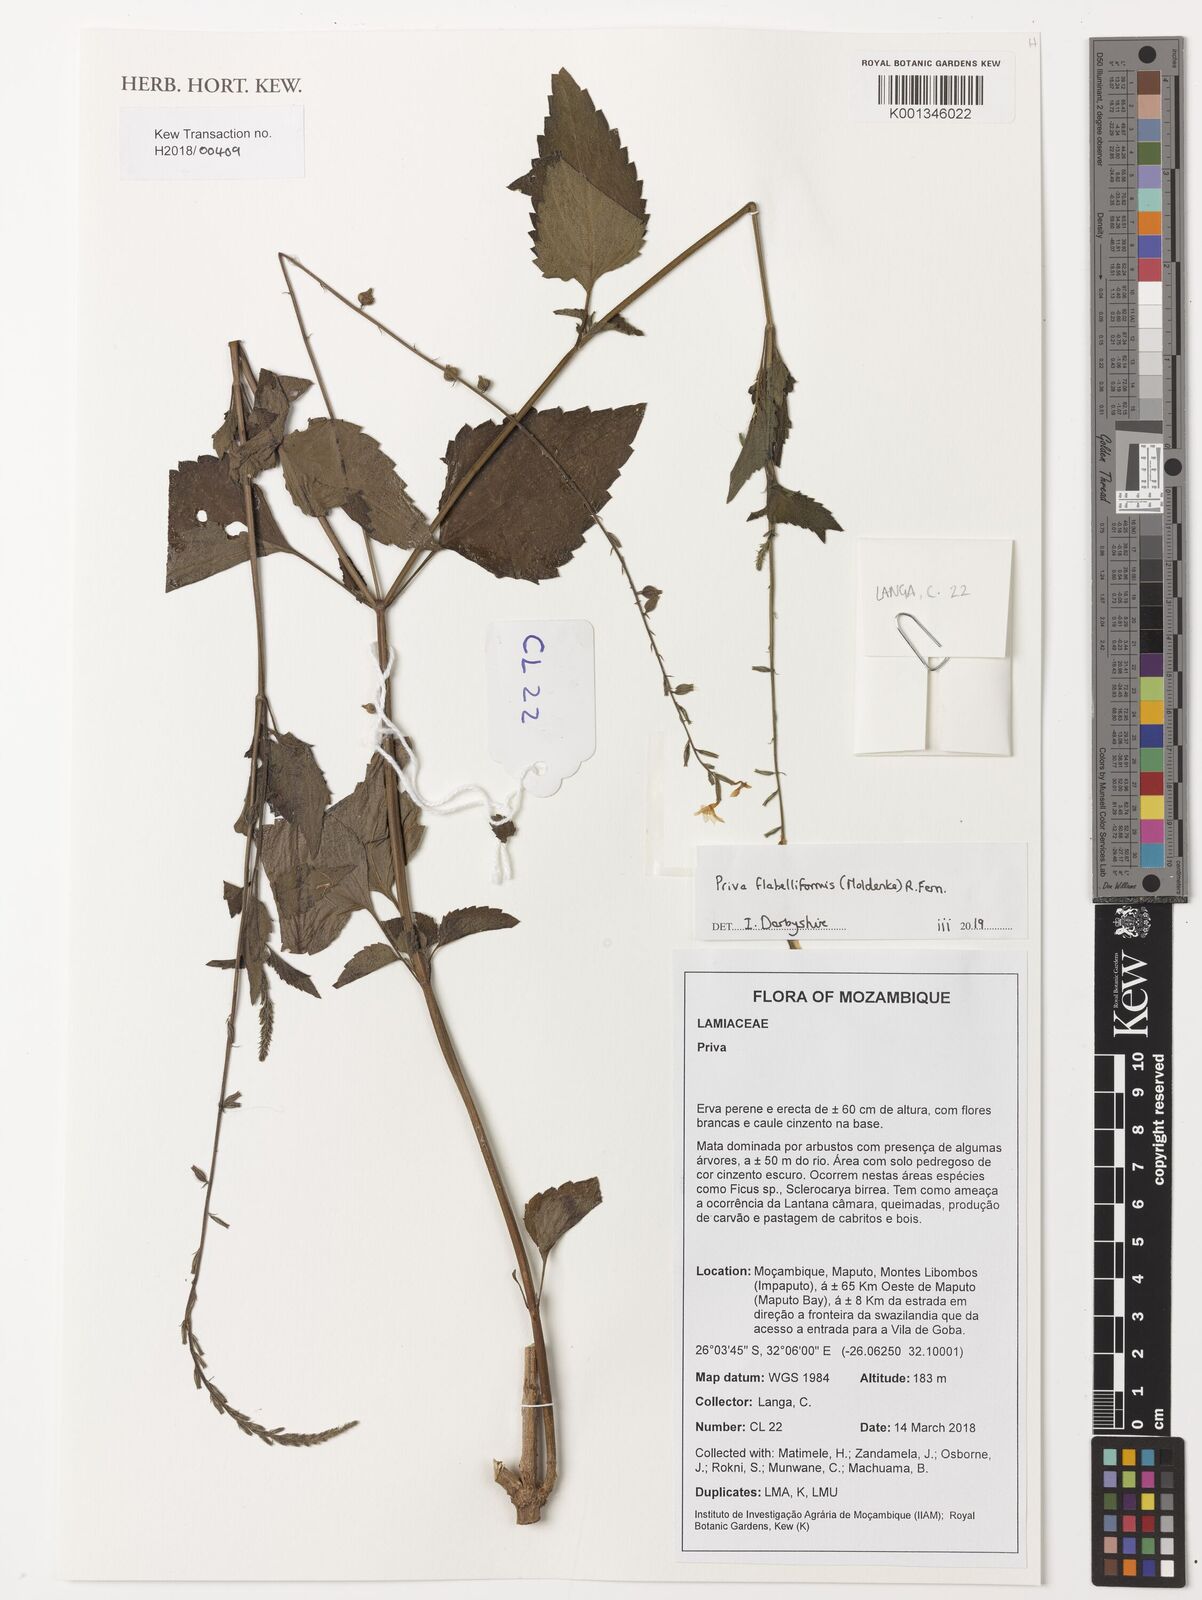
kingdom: Plantae
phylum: Tracheophyta
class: Magnoliopsida
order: Lamiales
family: Verbenaceae
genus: Priva
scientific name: Priva flabelliformis
